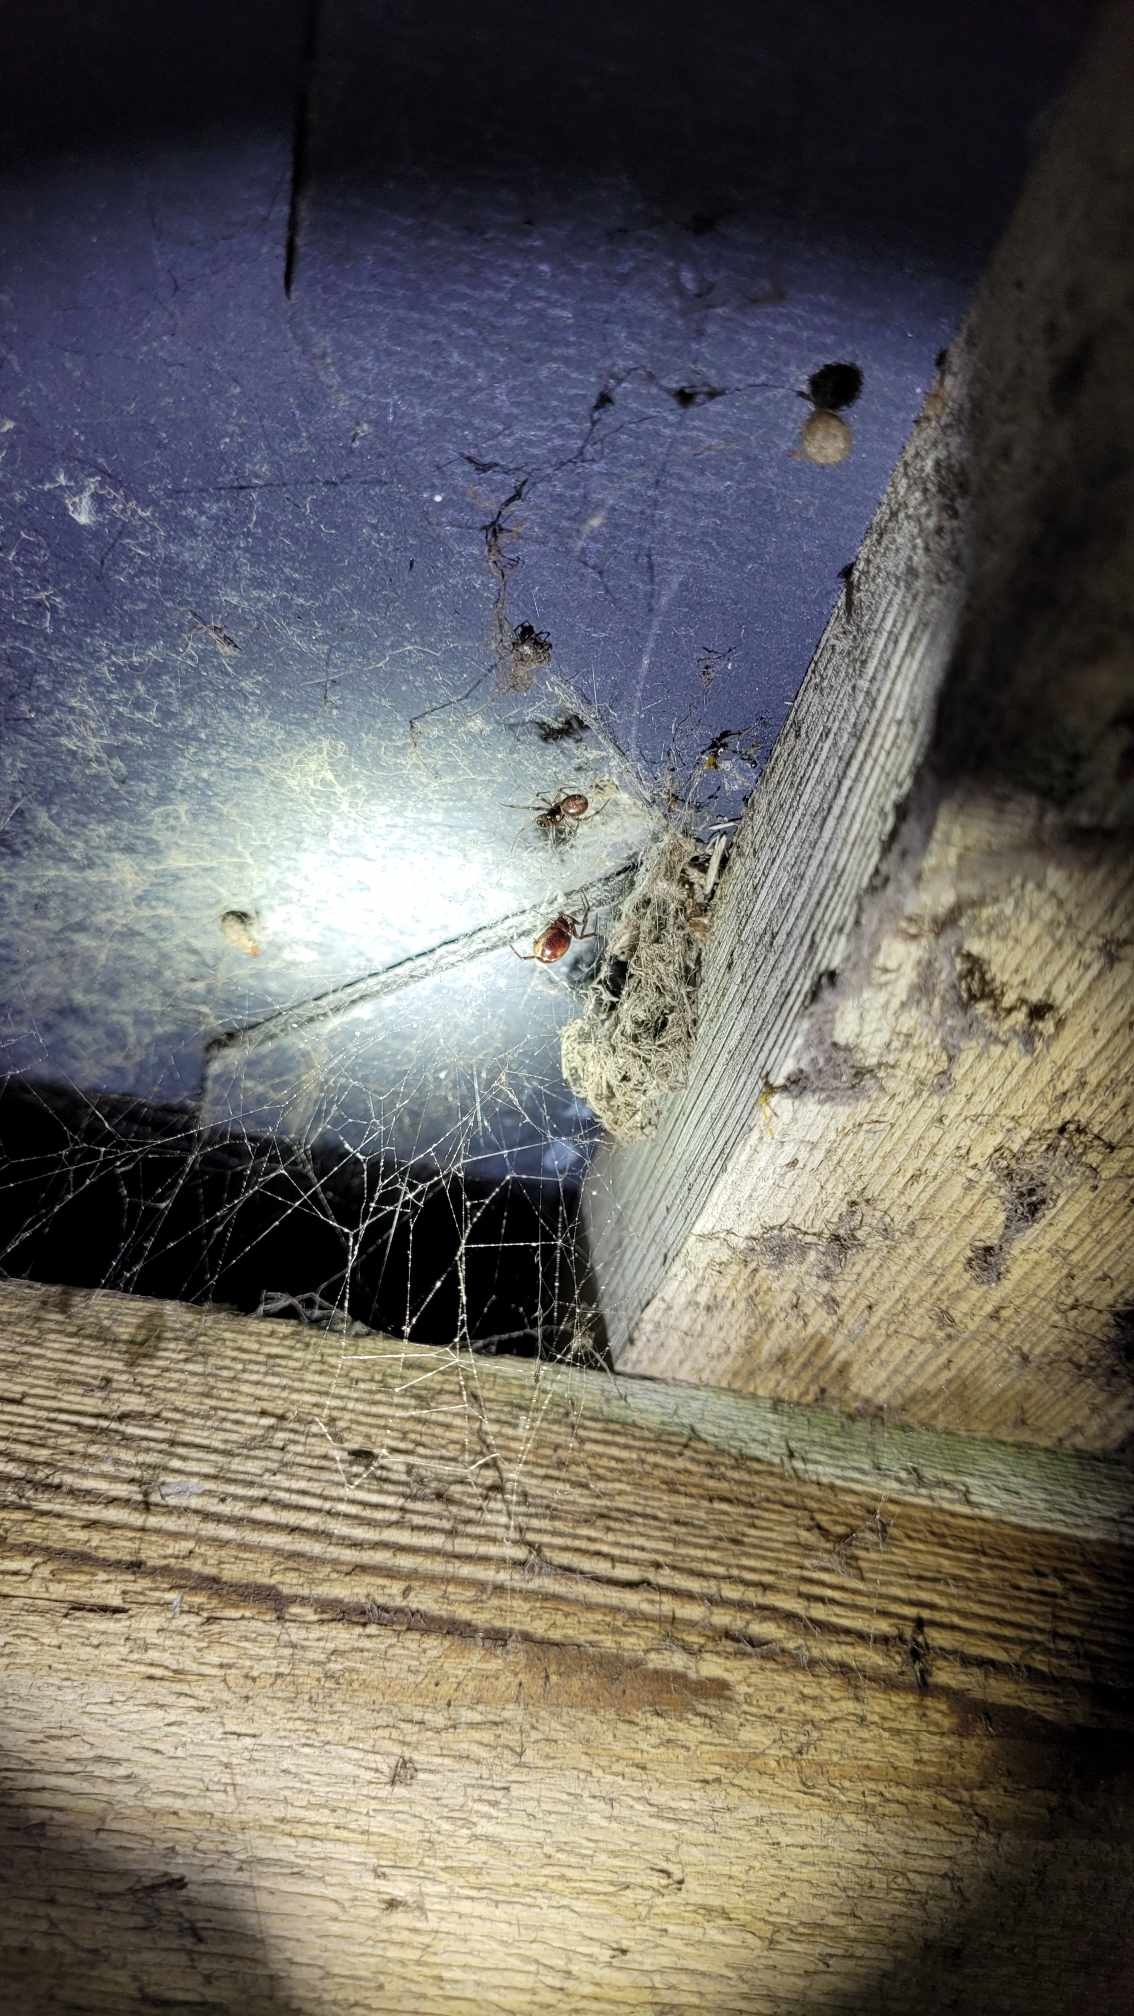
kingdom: Animalia
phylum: Arthropoda
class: Arachnida
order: Araneae
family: Theridiidae
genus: Steatoda
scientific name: Steatoda bipunctata
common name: Fedtedderkop
